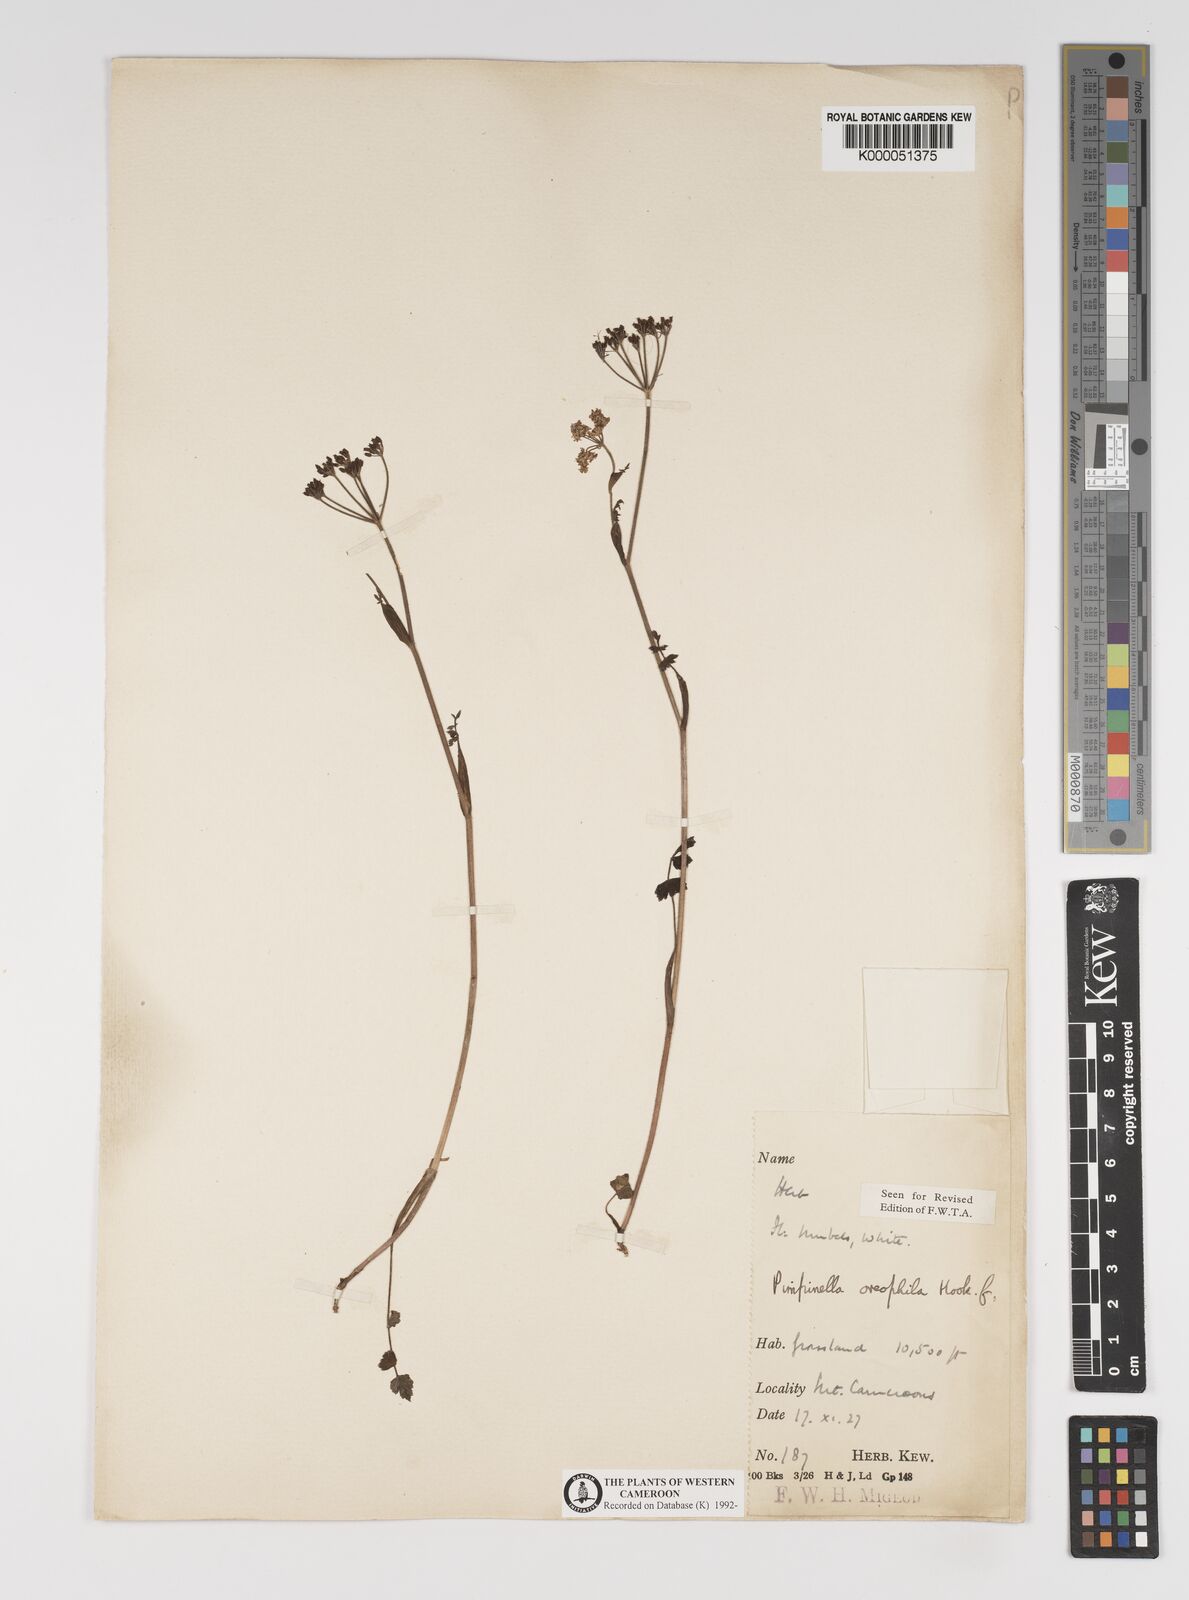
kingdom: Plantae
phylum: Tracheophyta
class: Magnoliopsida
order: Apiales
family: Apiaceae
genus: Pimpinella
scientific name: Pimpinella oreophila
